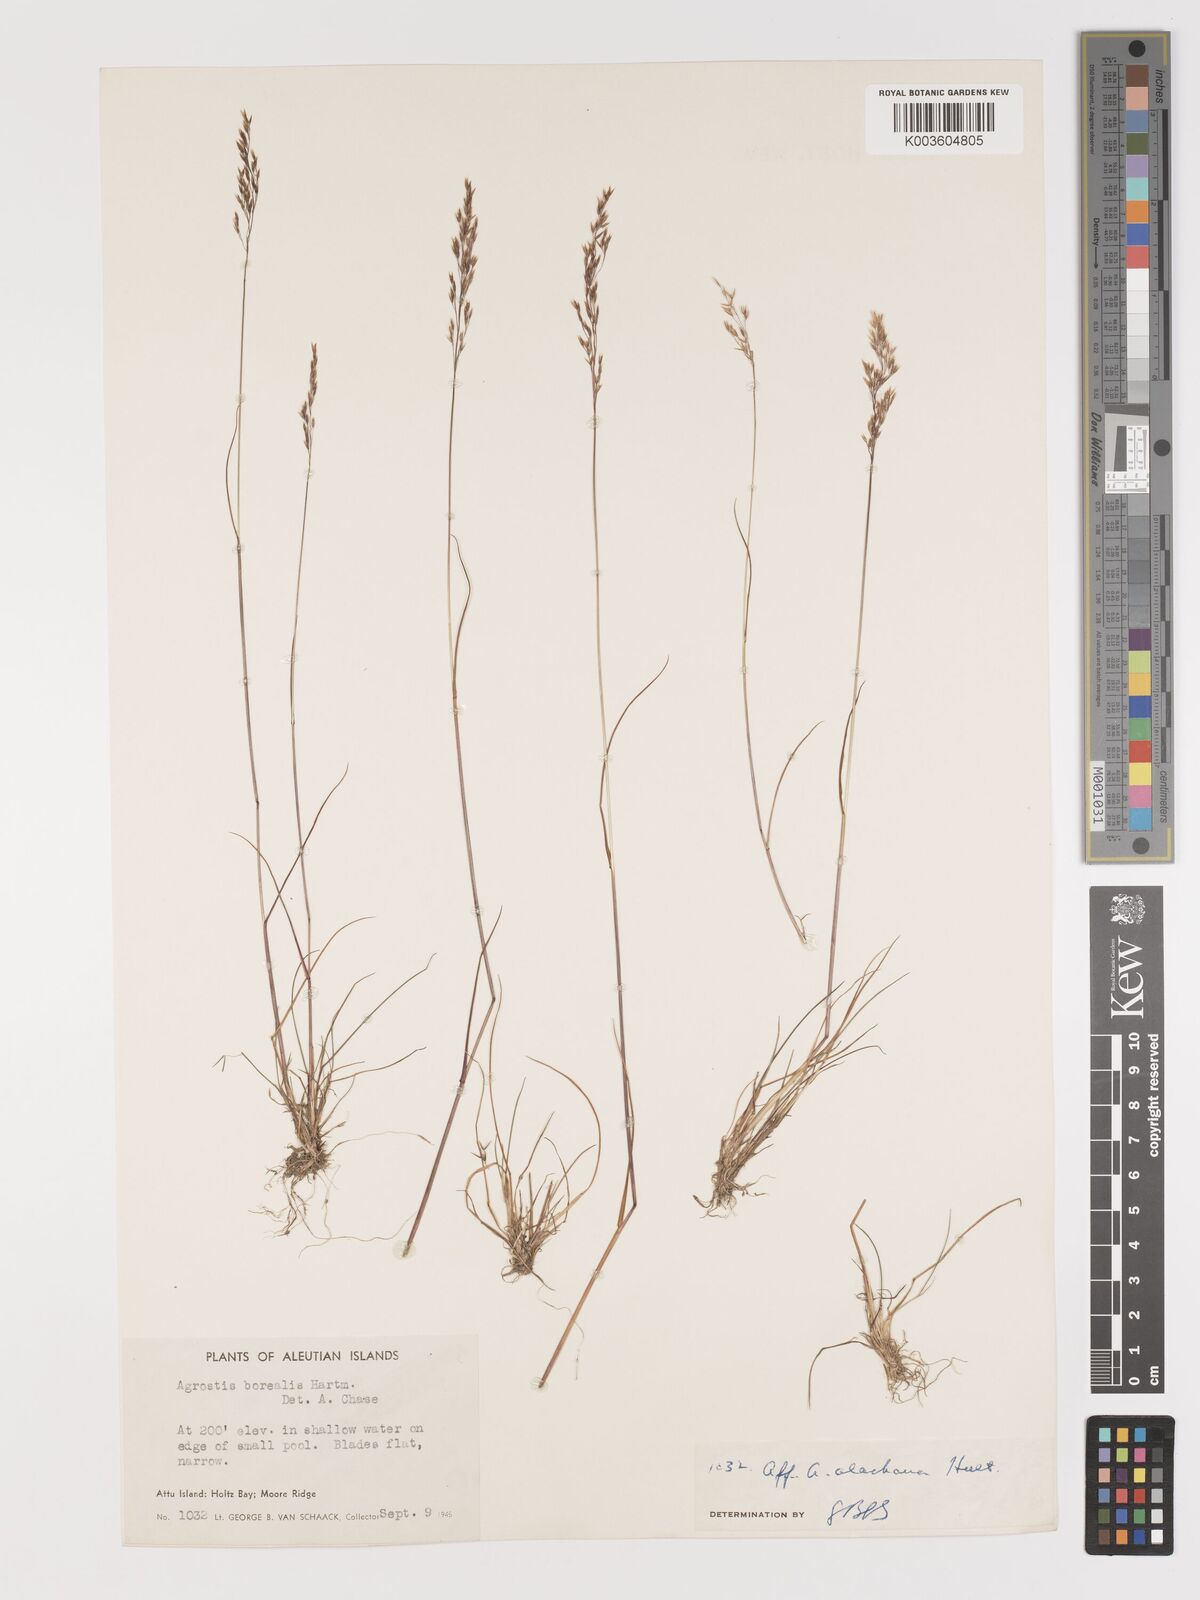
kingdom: Plantae
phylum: Tracheophyta
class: Liliopsida
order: Poales
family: Poaceae
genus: Agrostis
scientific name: Agrostis
